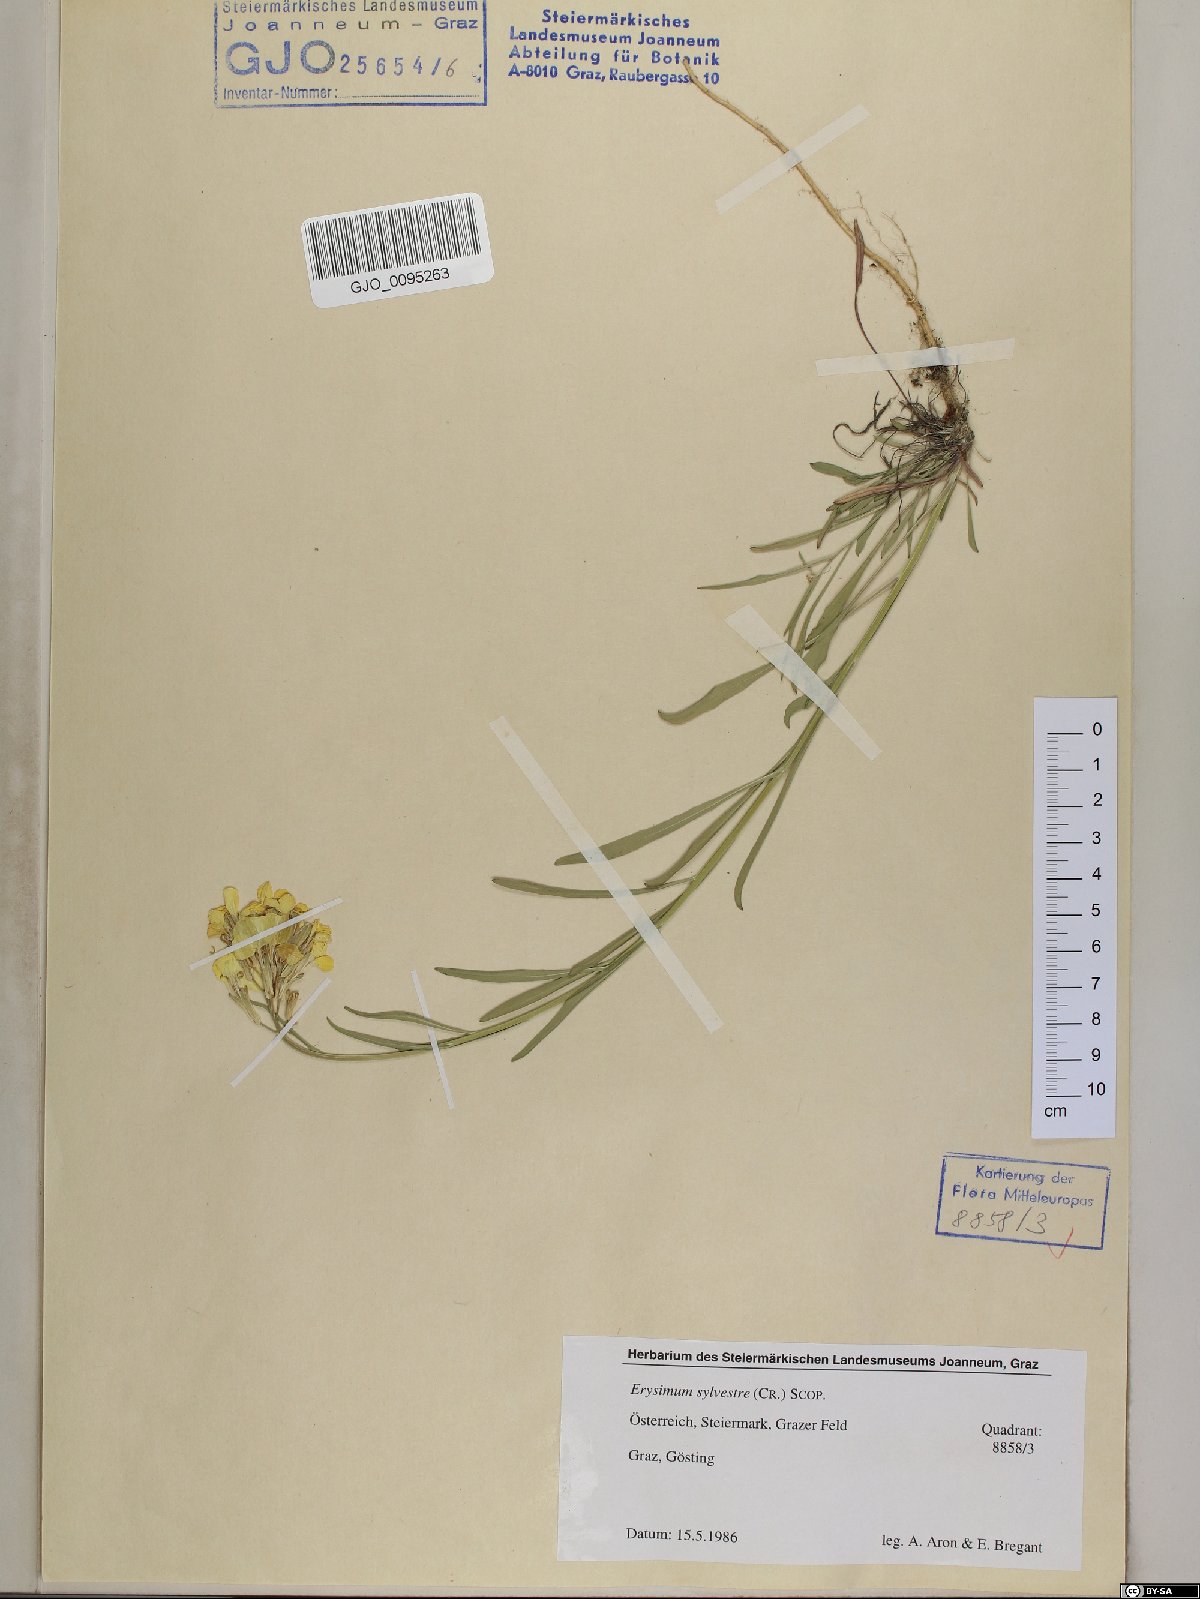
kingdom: Plantae
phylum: Tracheophyta
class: Magnoliopsida
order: Brassicales
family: Brassicaceae
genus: Erysimum
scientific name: Erysimum sylvestre
